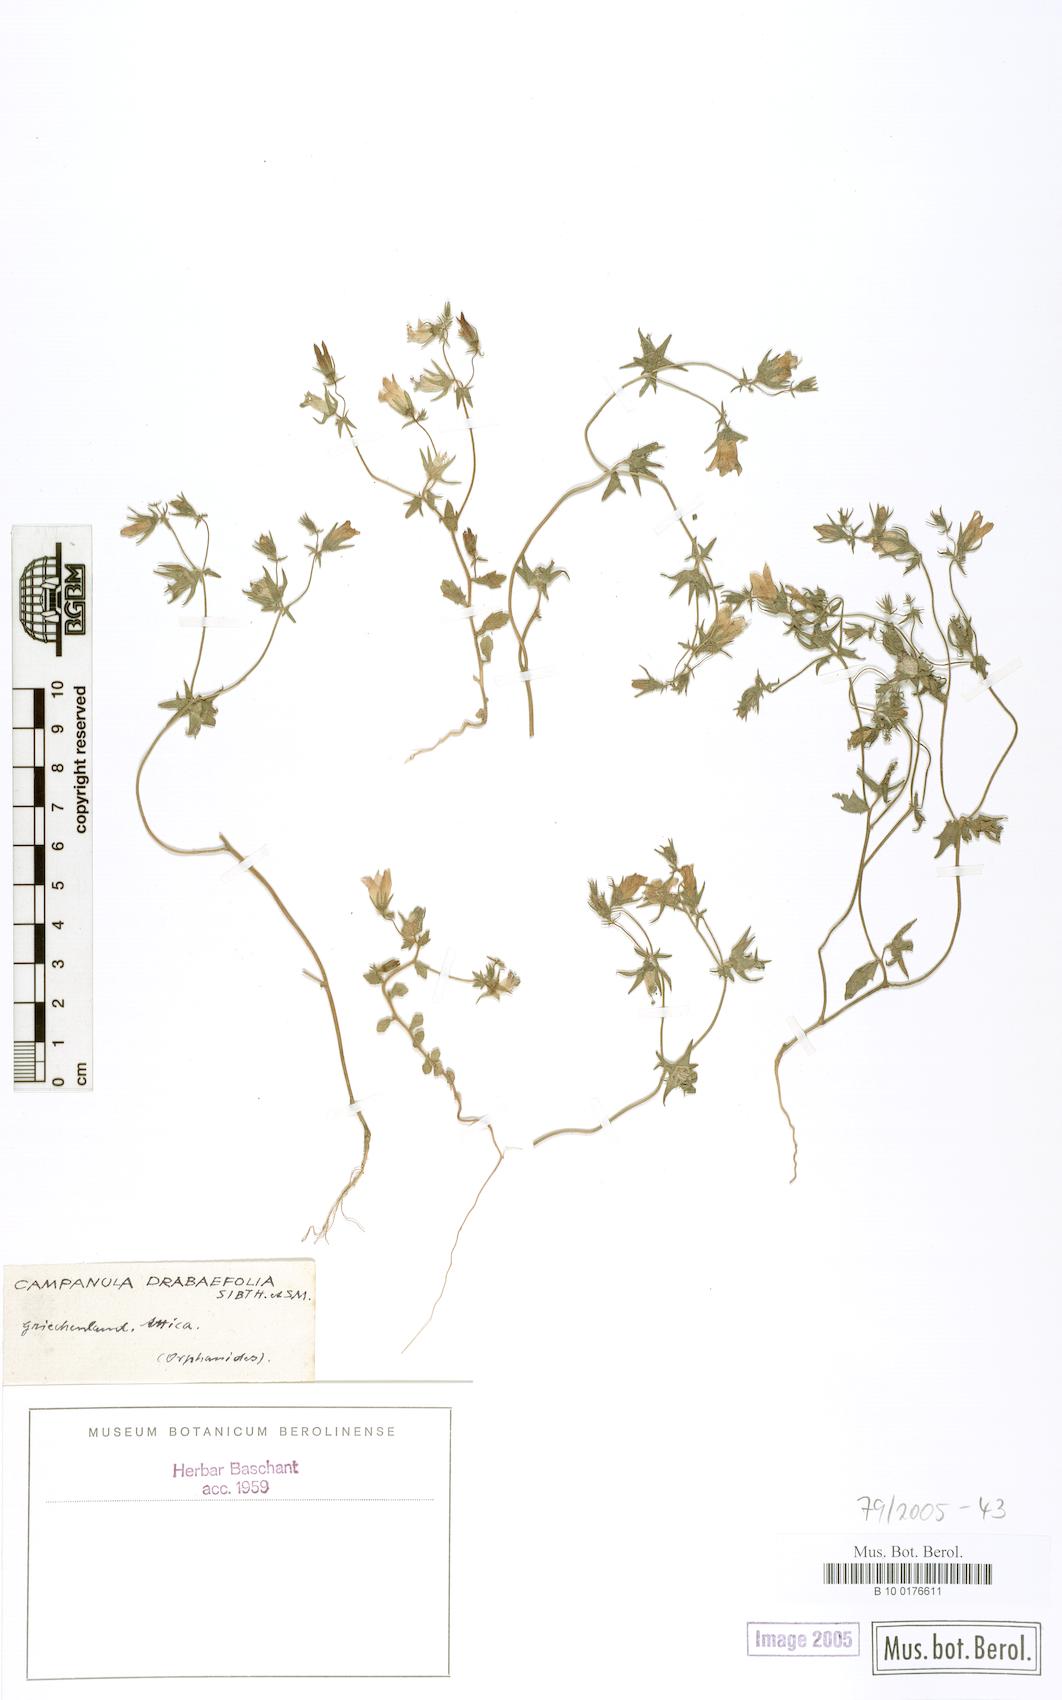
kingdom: Plantae
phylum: Tracheophyta
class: Magnoliopsida
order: Asterales
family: Campanulaceae
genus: Campanula
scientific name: Campanula drabifolia
